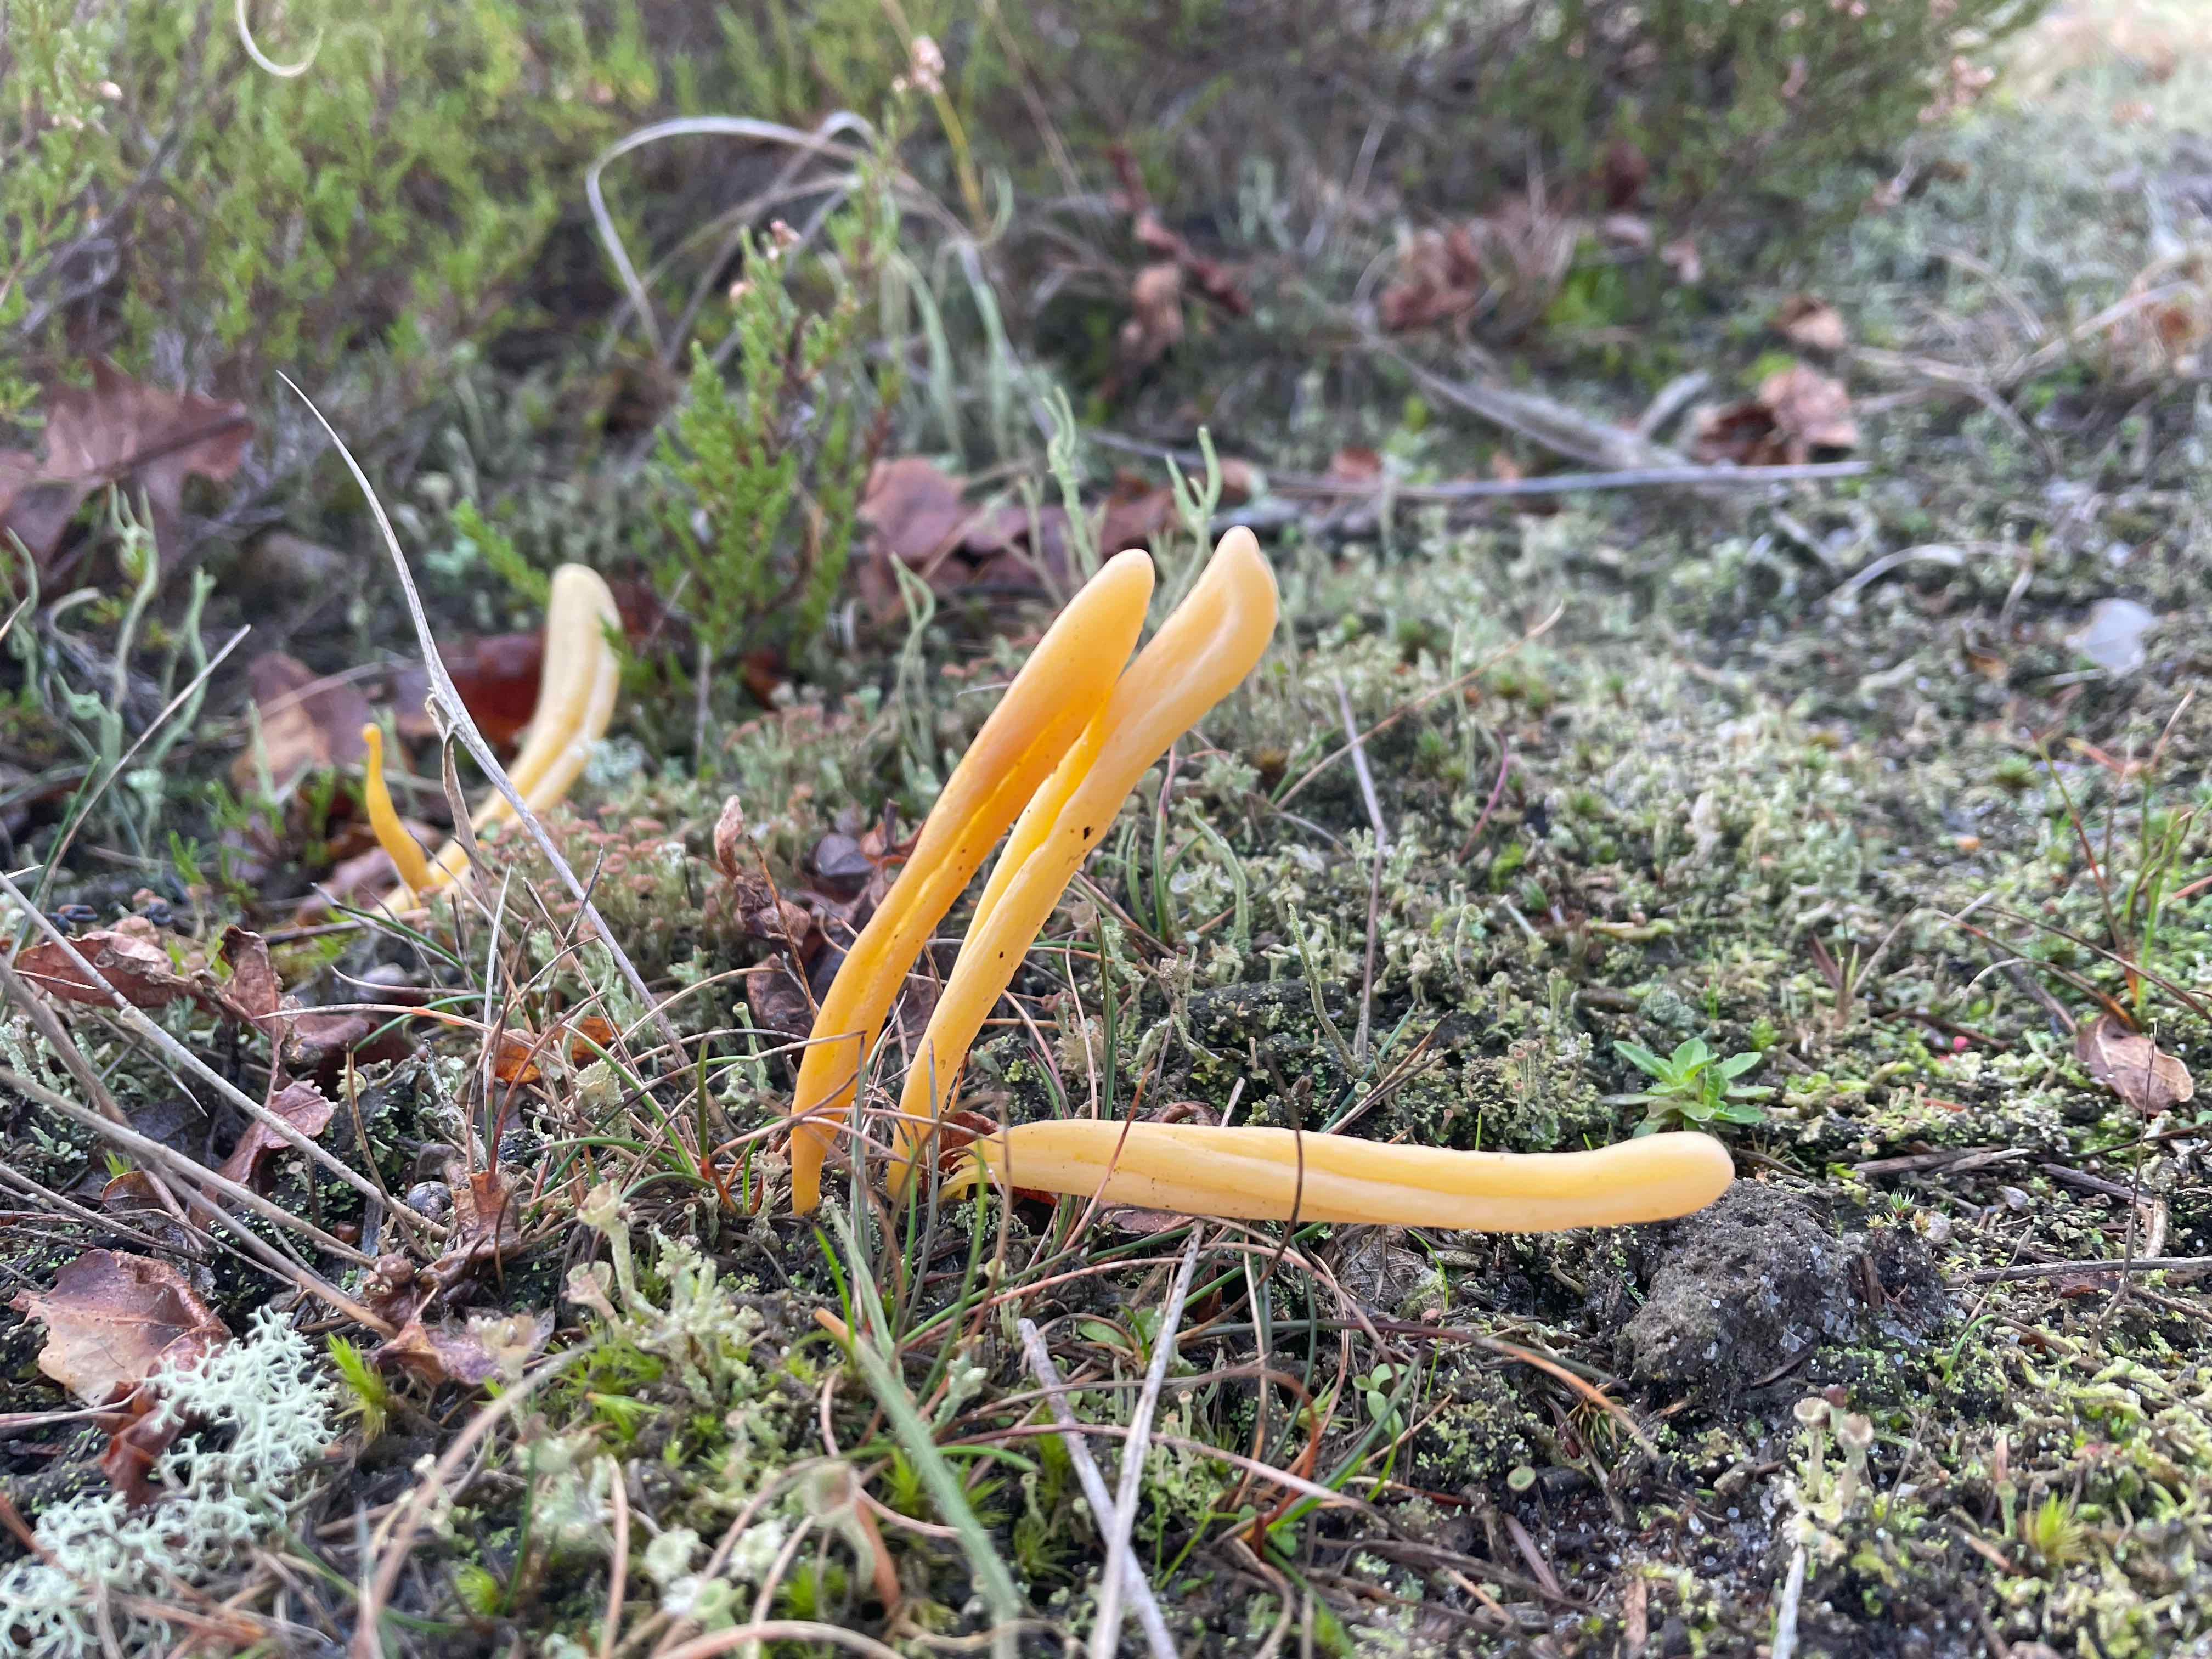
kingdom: Fungi
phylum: Basidiomycota
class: Agaricomycetes
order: Agaricales
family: Clavariaceae
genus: Clavaria
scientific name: Clavaria argillacea
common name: lerfarvet køllesvamp
